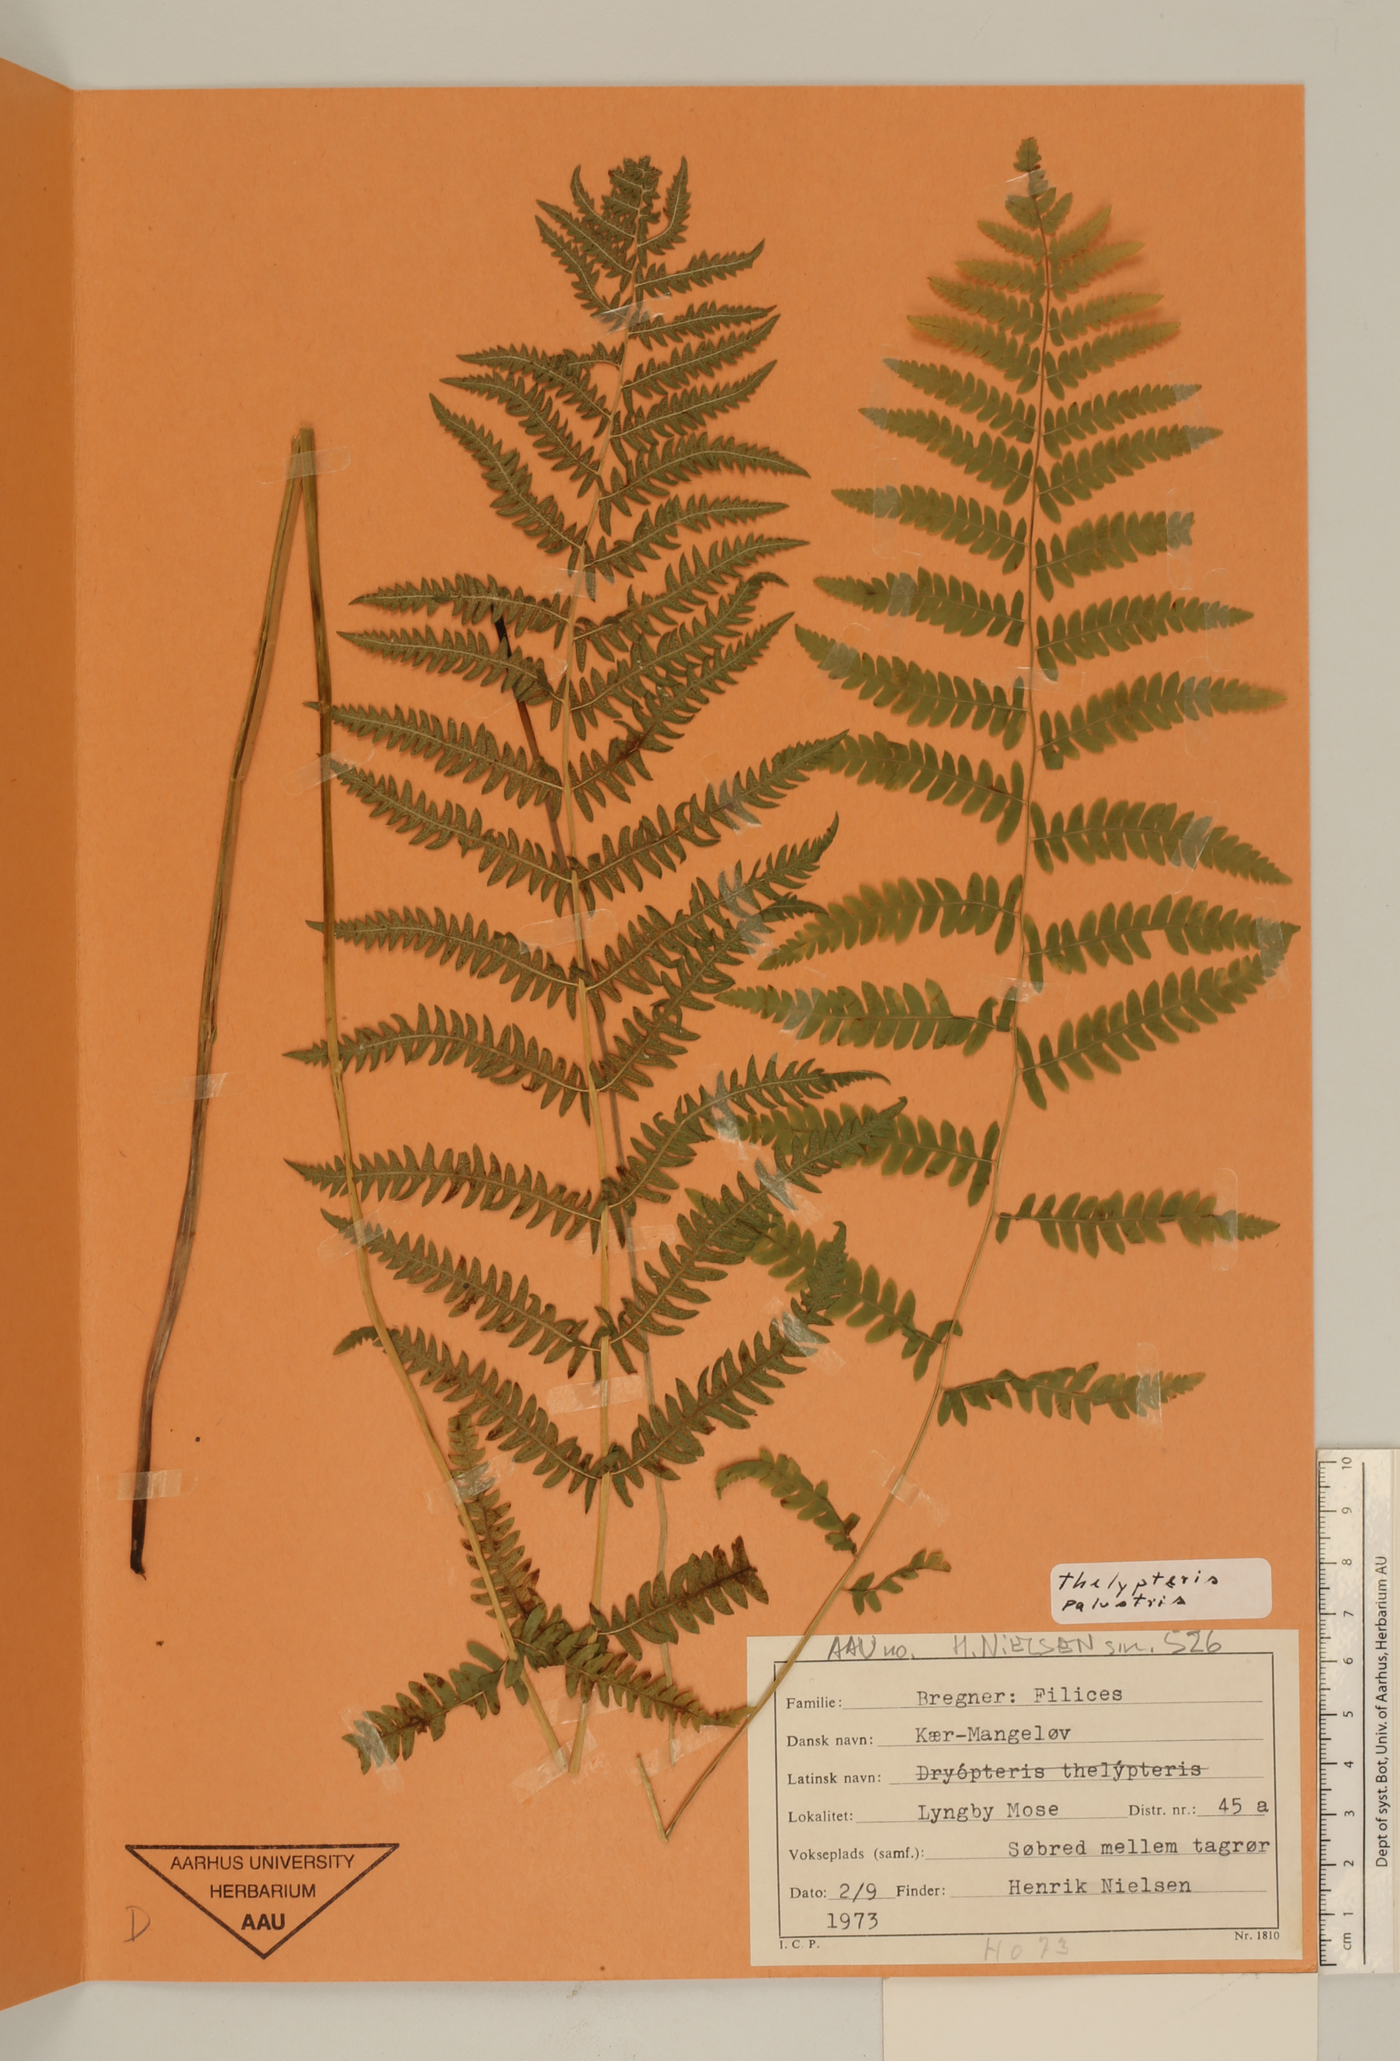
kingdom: Plantae
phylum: Tracheophyta
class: Polypodiopsida
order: Polypodiales
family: Thelypteridaceae
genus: Thelypteris
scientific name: Thelypteris confluens
